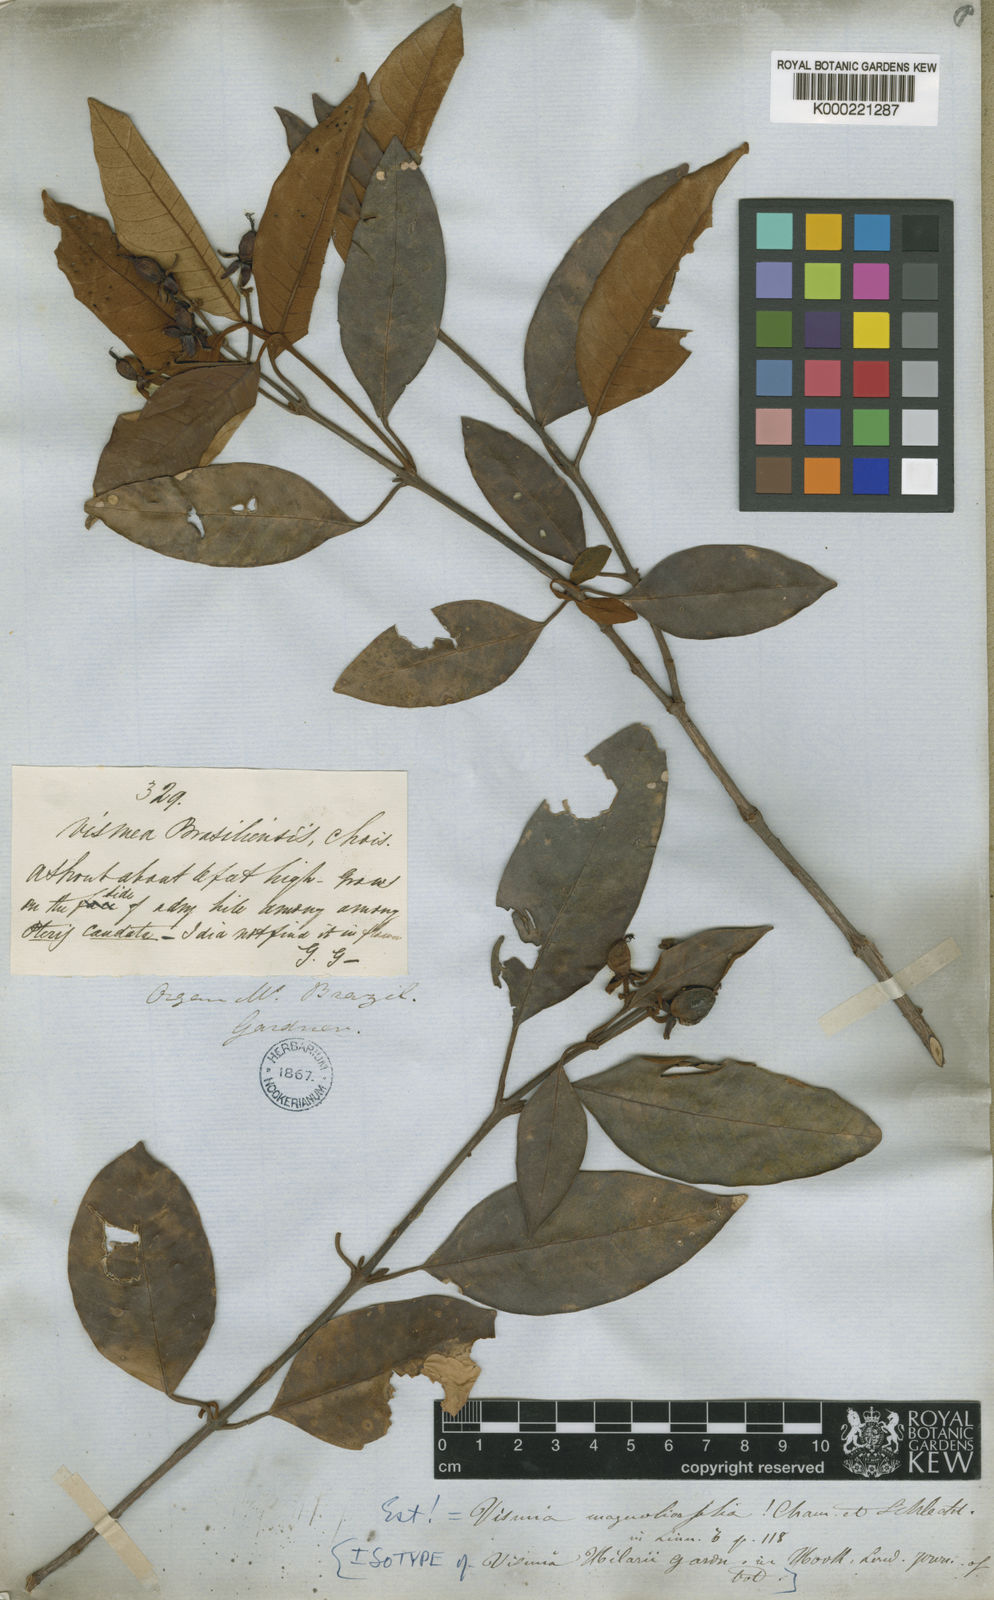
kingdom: Plantae
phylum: Tracheophyta
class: Magnoliopsida
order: Malpighiales
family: Hypericaceae
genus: Vismia
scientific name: Vismia magnoliifolia
